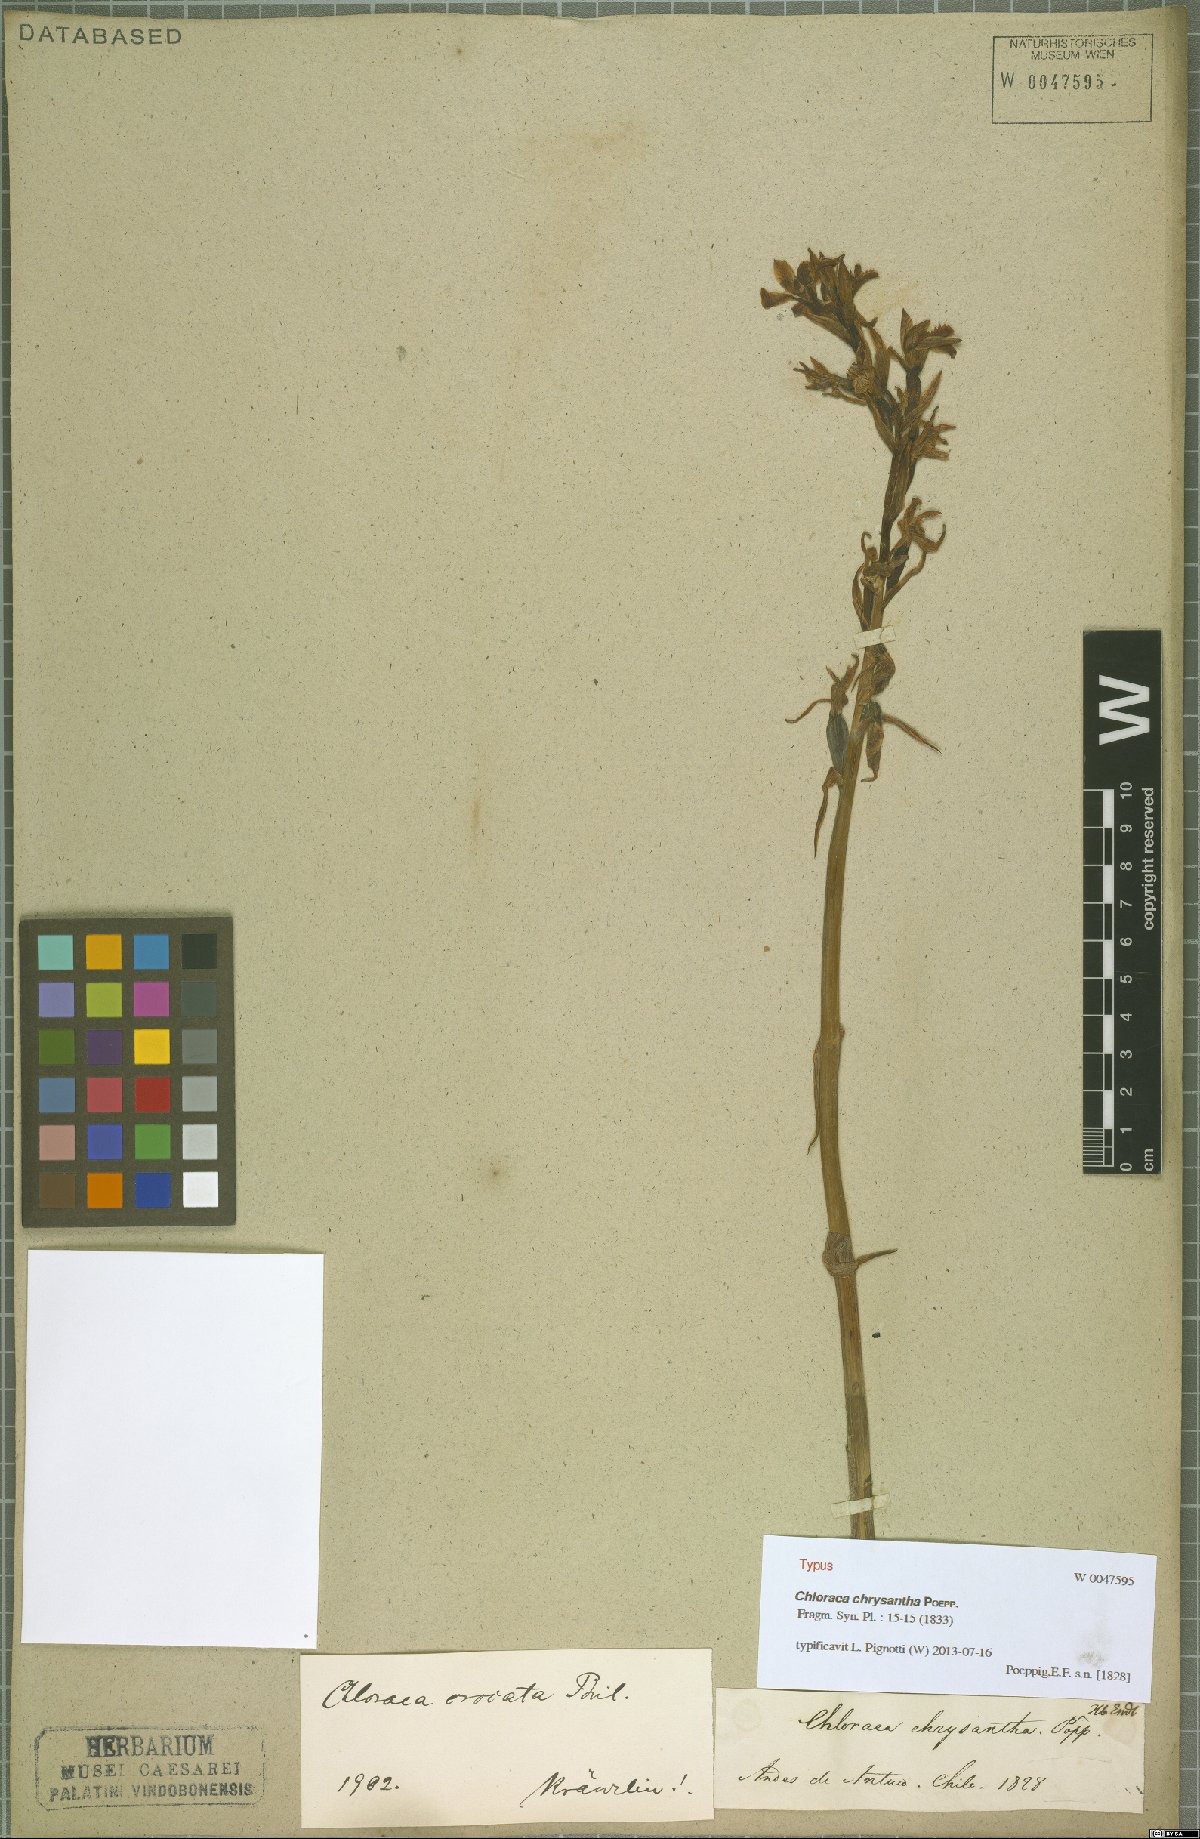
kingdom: Plantae
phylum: Tracheophyta
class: Liliopsida
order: Asparagales
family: Orchidaceae
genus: Chloraea
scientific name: Chloraea chrysantha
